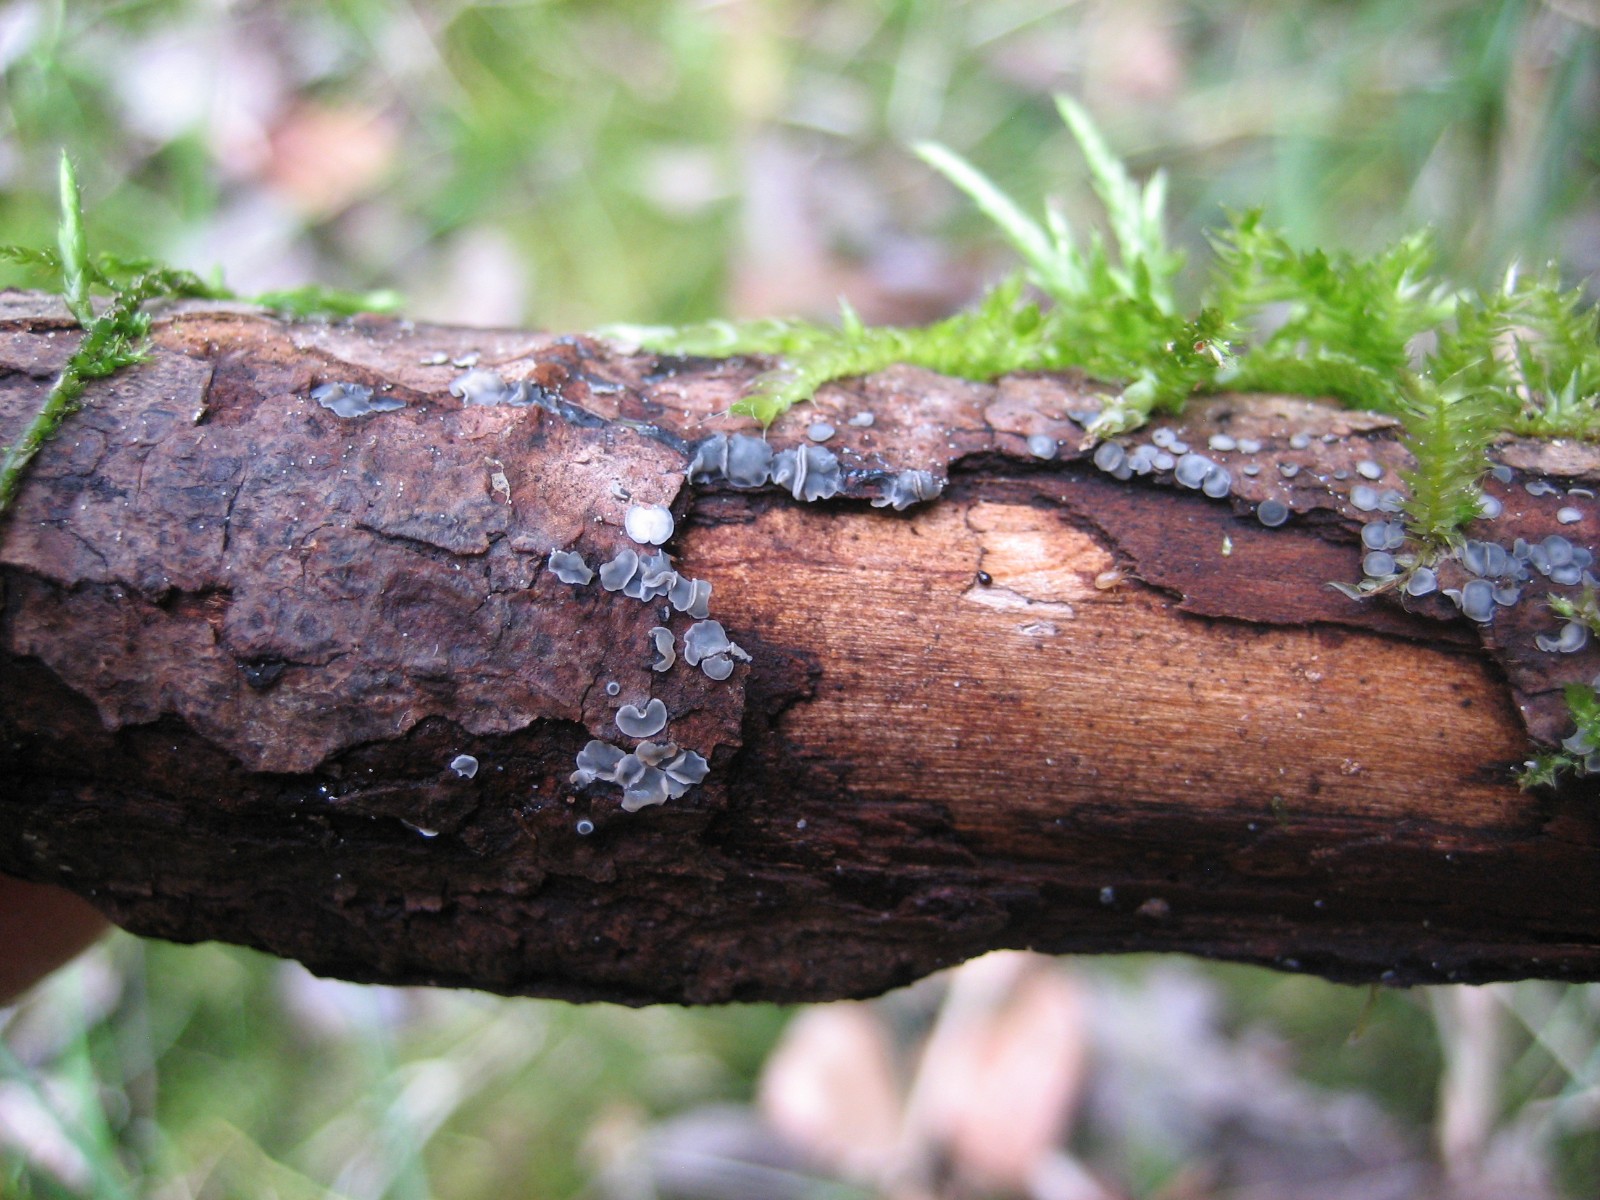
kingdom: Fungi
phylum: Ascomycota
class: Leotiomycetes
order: Helotiales
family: Mollisiaceae
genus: Mollisia
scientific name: Mollisia
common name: gråskive
